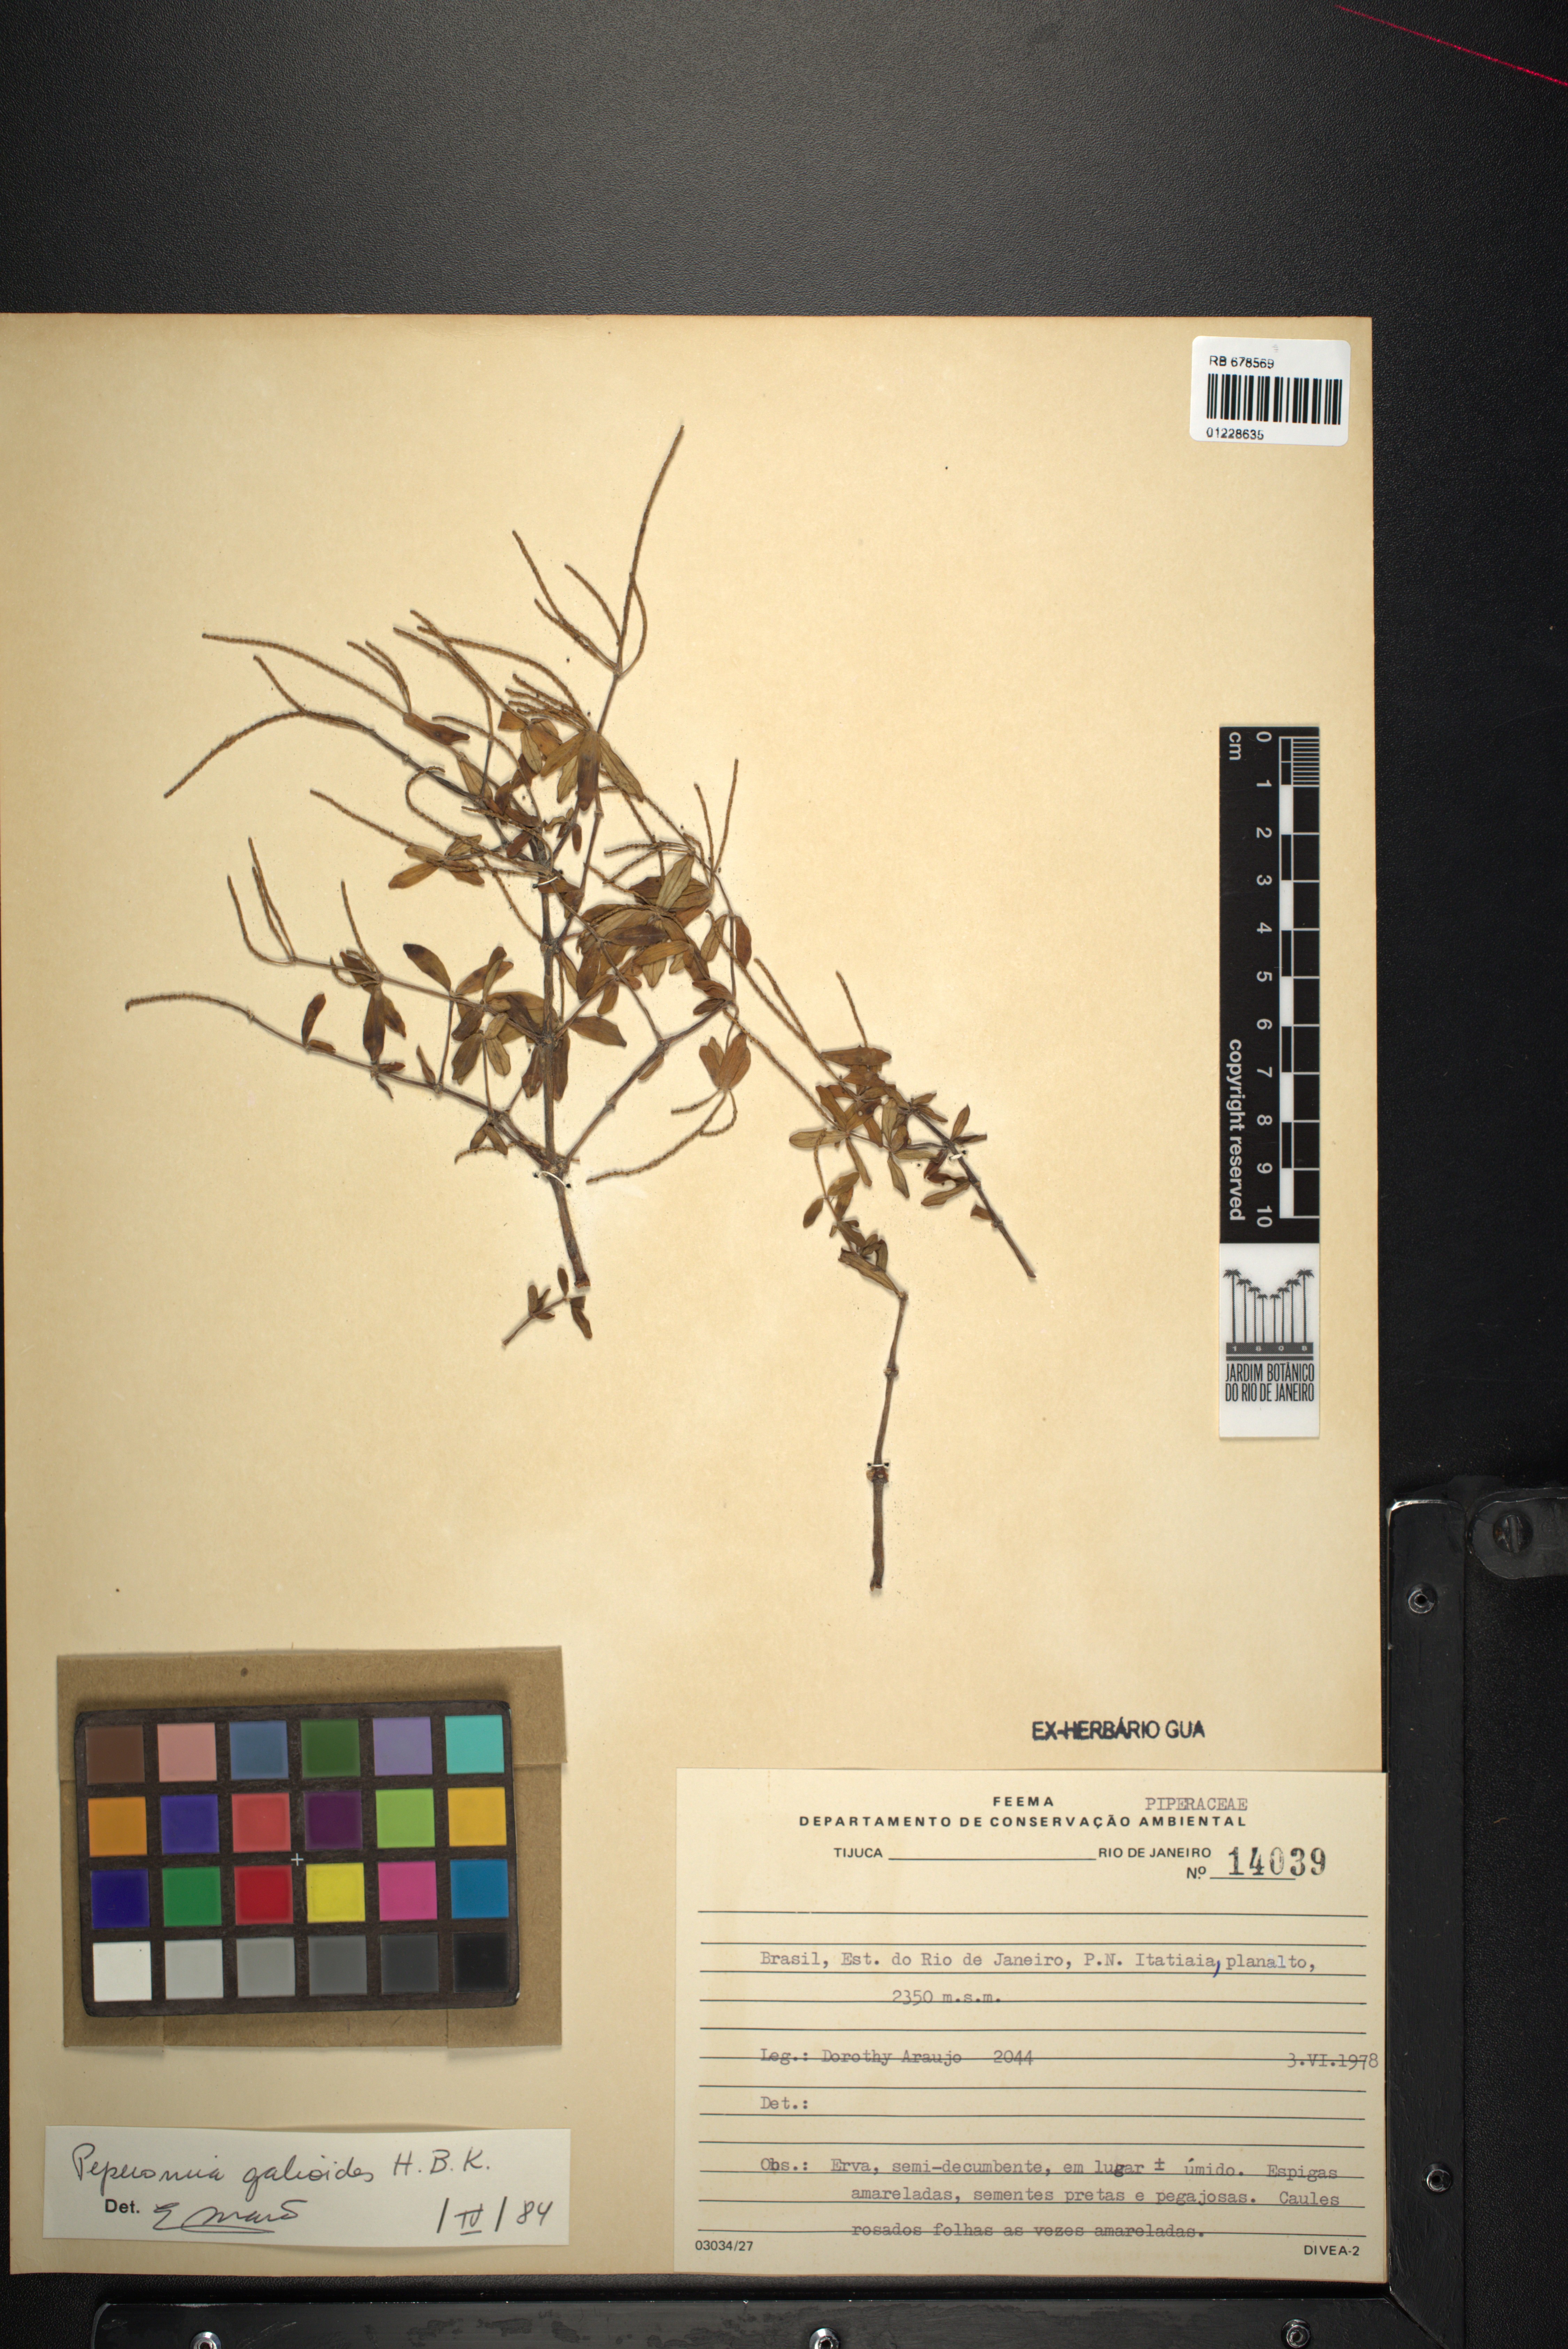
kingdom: Plantae
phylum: Tracheophyta
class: Magnoliopsida
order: Piperales
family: Piperaceae
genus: Peperomia
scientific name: Peperomia galioides
